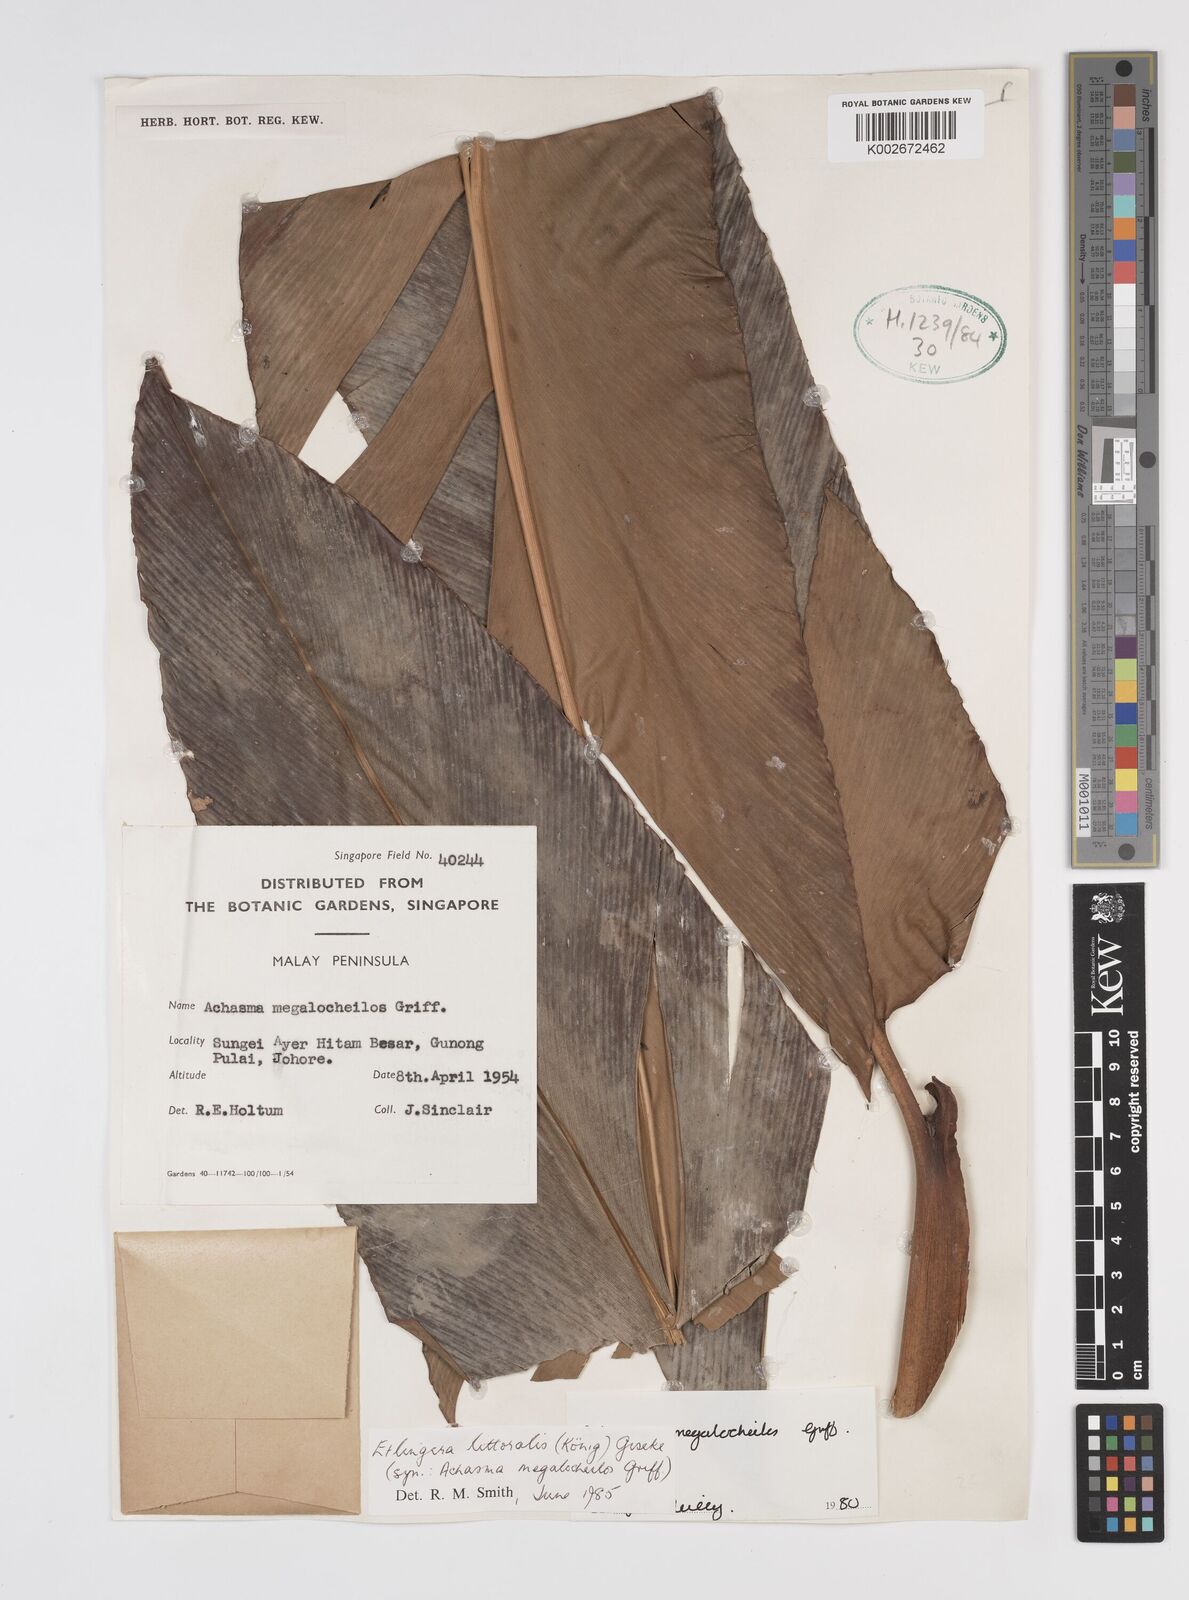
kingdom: Plantae
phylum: Tracheophyta
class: Liliopsida
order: Zingiberales
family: Zingiberaceae
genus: Etlingera
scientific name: Etlingera littoralis
